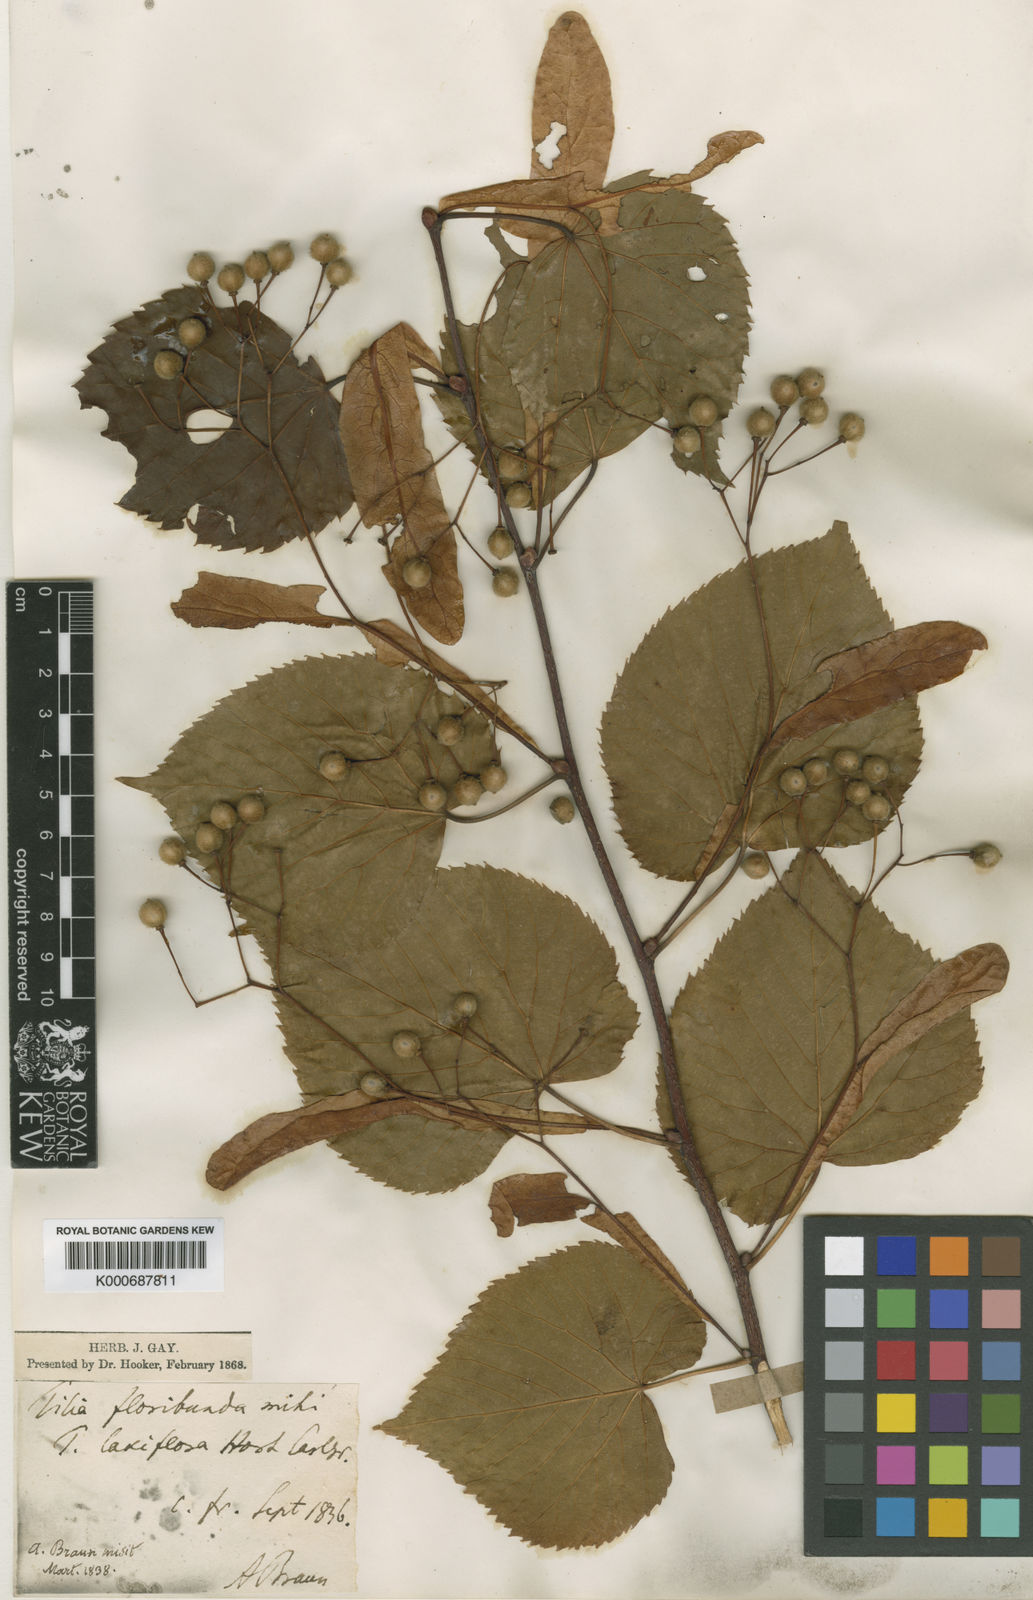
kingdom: Plantae
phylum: Tracheophyta
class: Magnoliopsida
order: Malvales
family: Malvaceae
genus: Tilia
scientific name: Tilia flavescens
